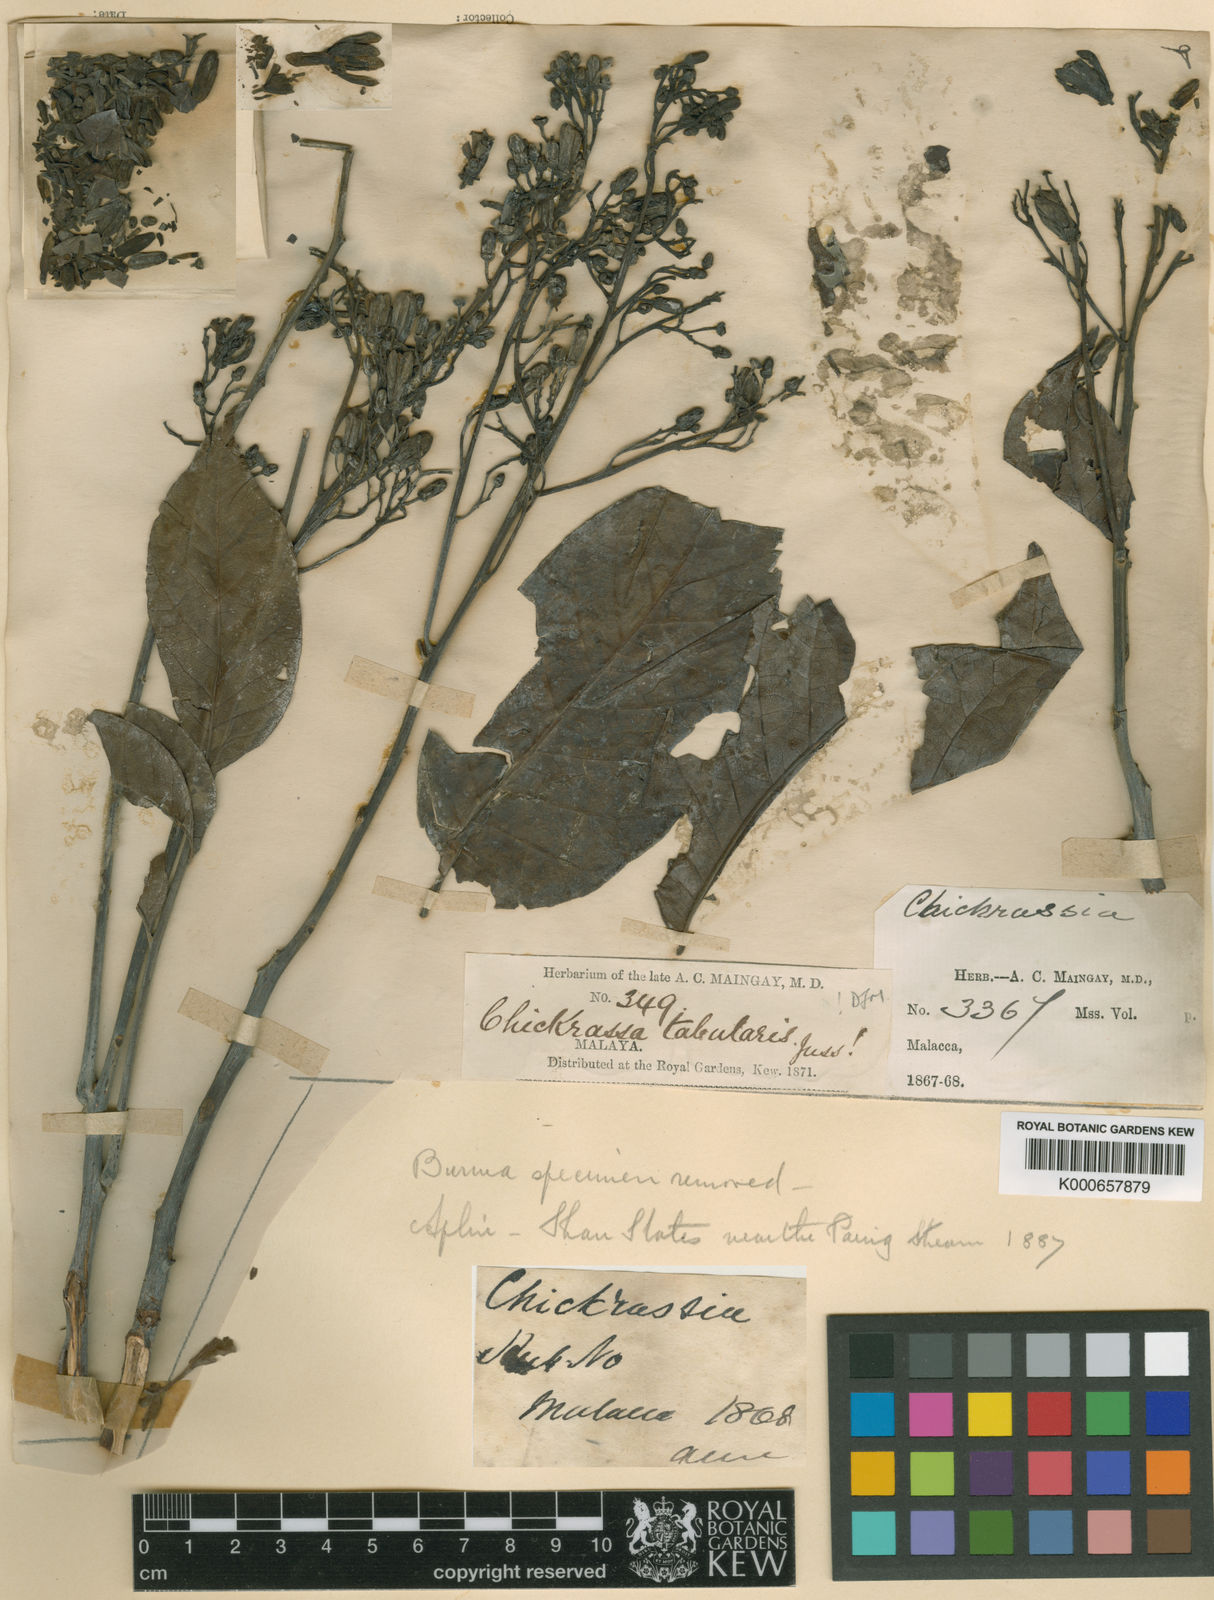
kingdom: Plantae
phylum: Tracheophyta
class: Magnoliopsida
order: Sapindales
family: Meliaceae
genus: Chukrasia
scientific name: Chukrasia tabularis
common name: Chittagong wood
